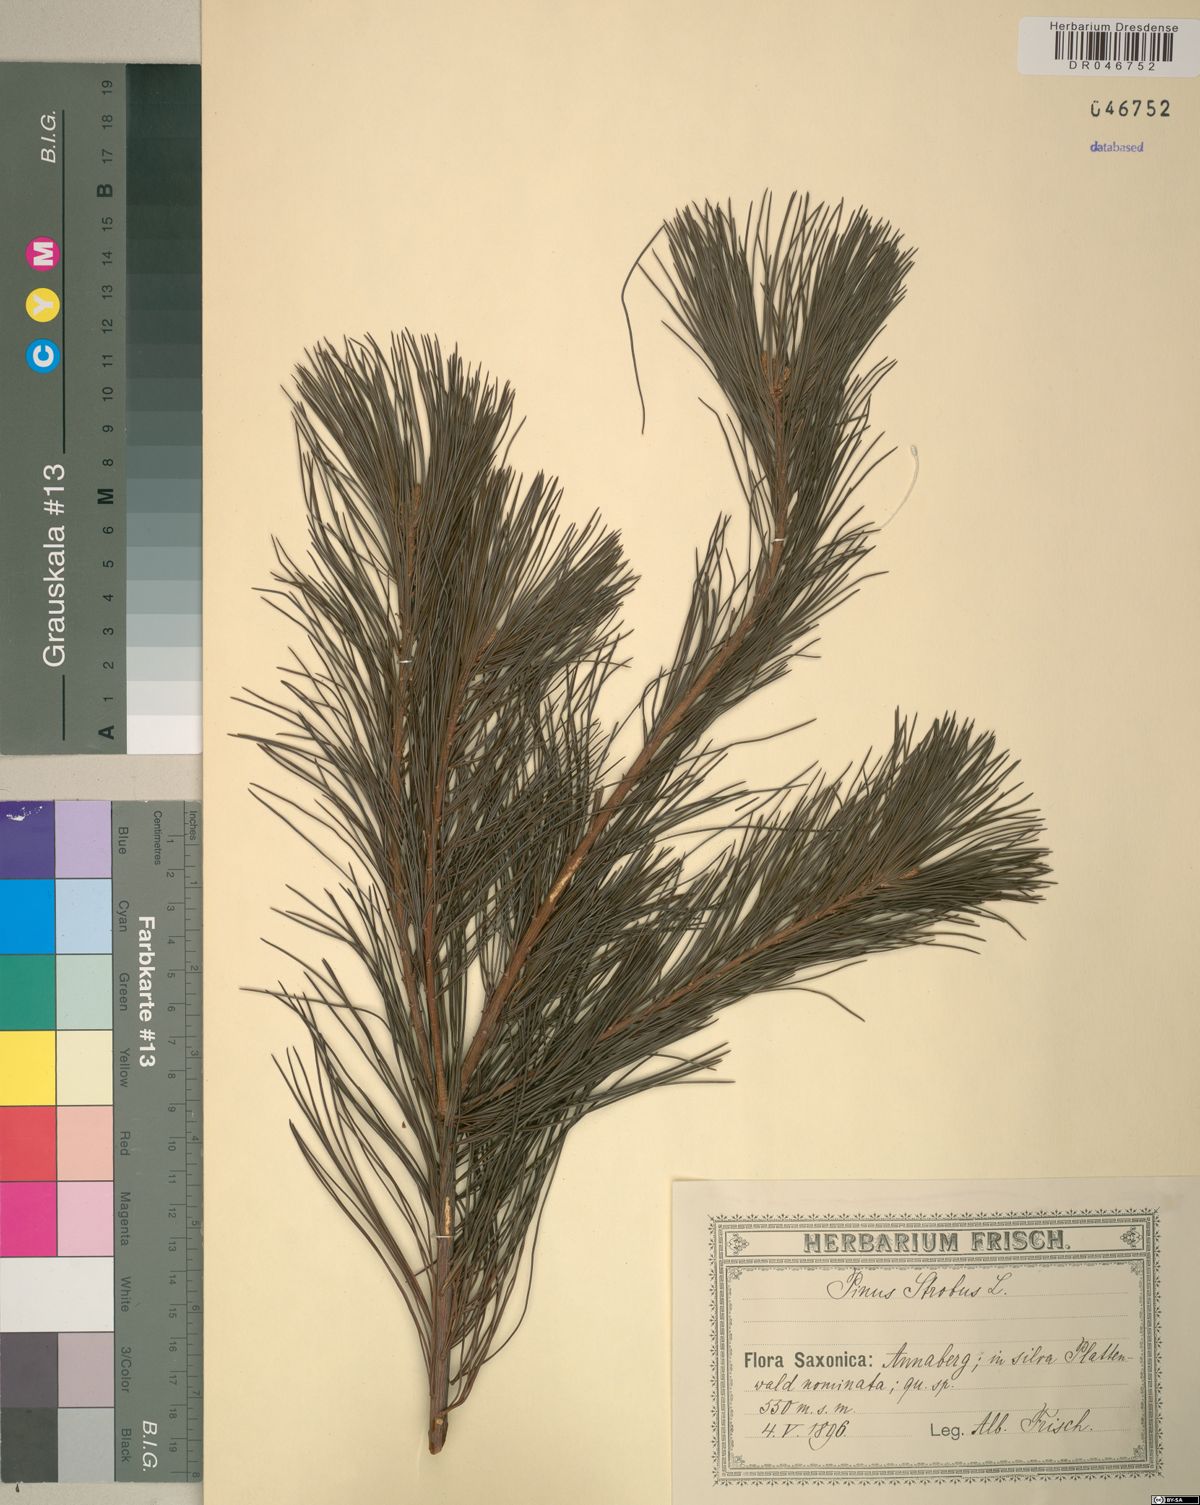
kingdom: Plantae
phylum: Tracheophyta
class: Pinopsida
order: Pinales
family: Pinaceae
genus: Pinus
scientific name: Pinus strobus
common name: Weymouth pine
